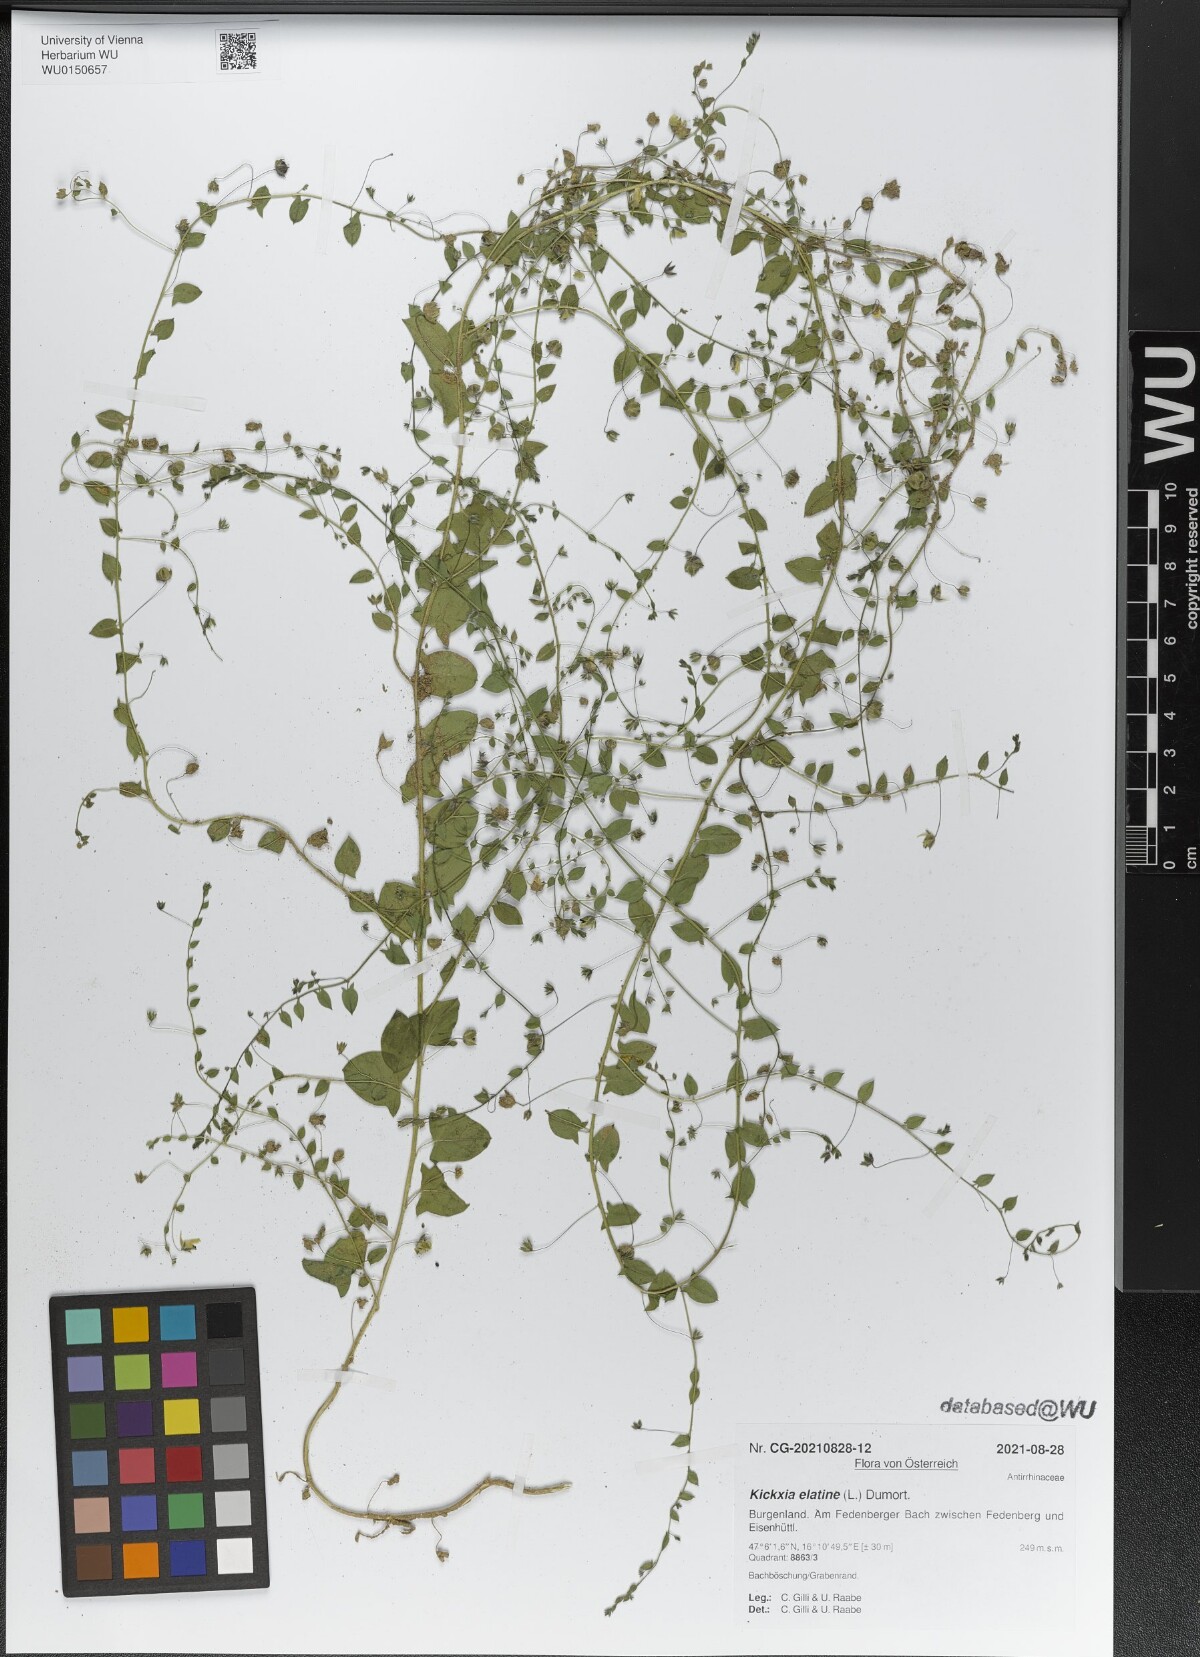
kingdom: Plantae
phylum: Tracheophyta
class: Magnoliopsida
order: Lamiales
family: Plantaginaceae
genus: Kickxia
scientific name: Kickxia elatine
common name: Sharp-leaved fluellen
